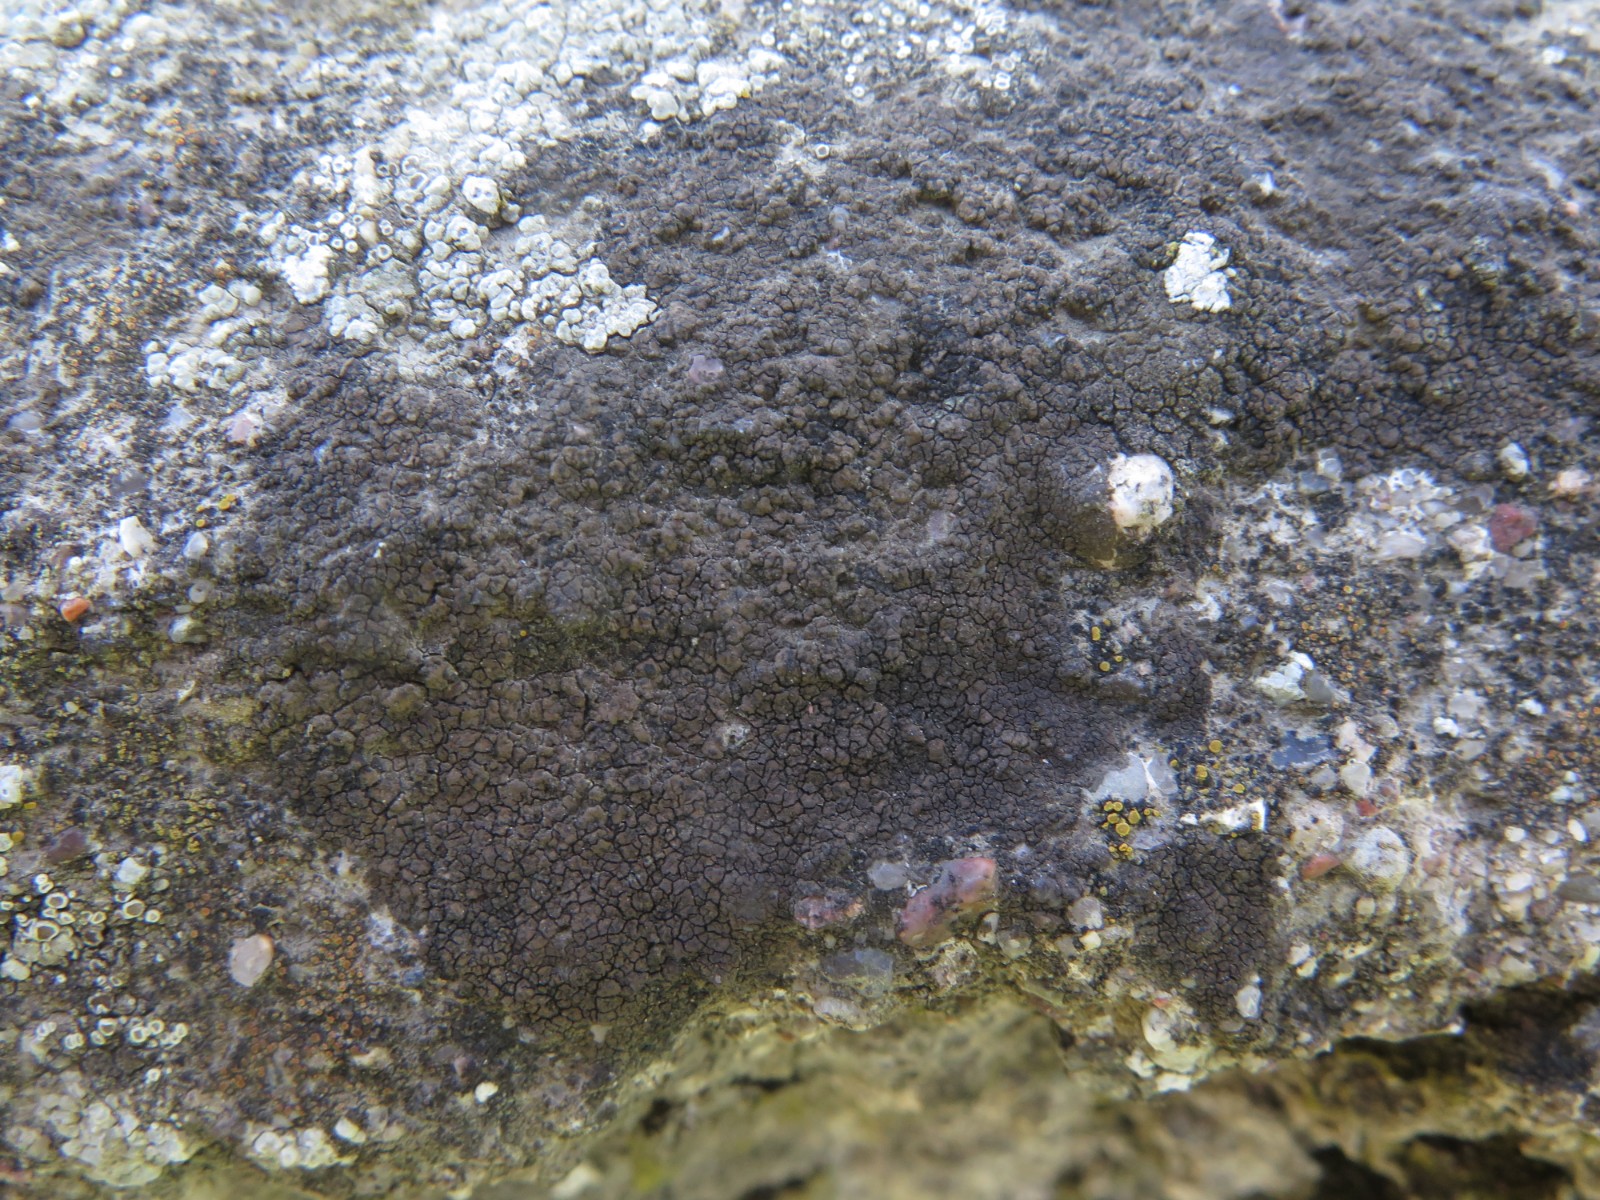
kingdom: Fungi
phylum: Ascomycota
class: Eurotiomycetes
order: Verrucariales
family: Verrucariaceae
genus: Verrucaria
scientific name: Verrucaria nigrescens
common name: sortbrun vortelav
